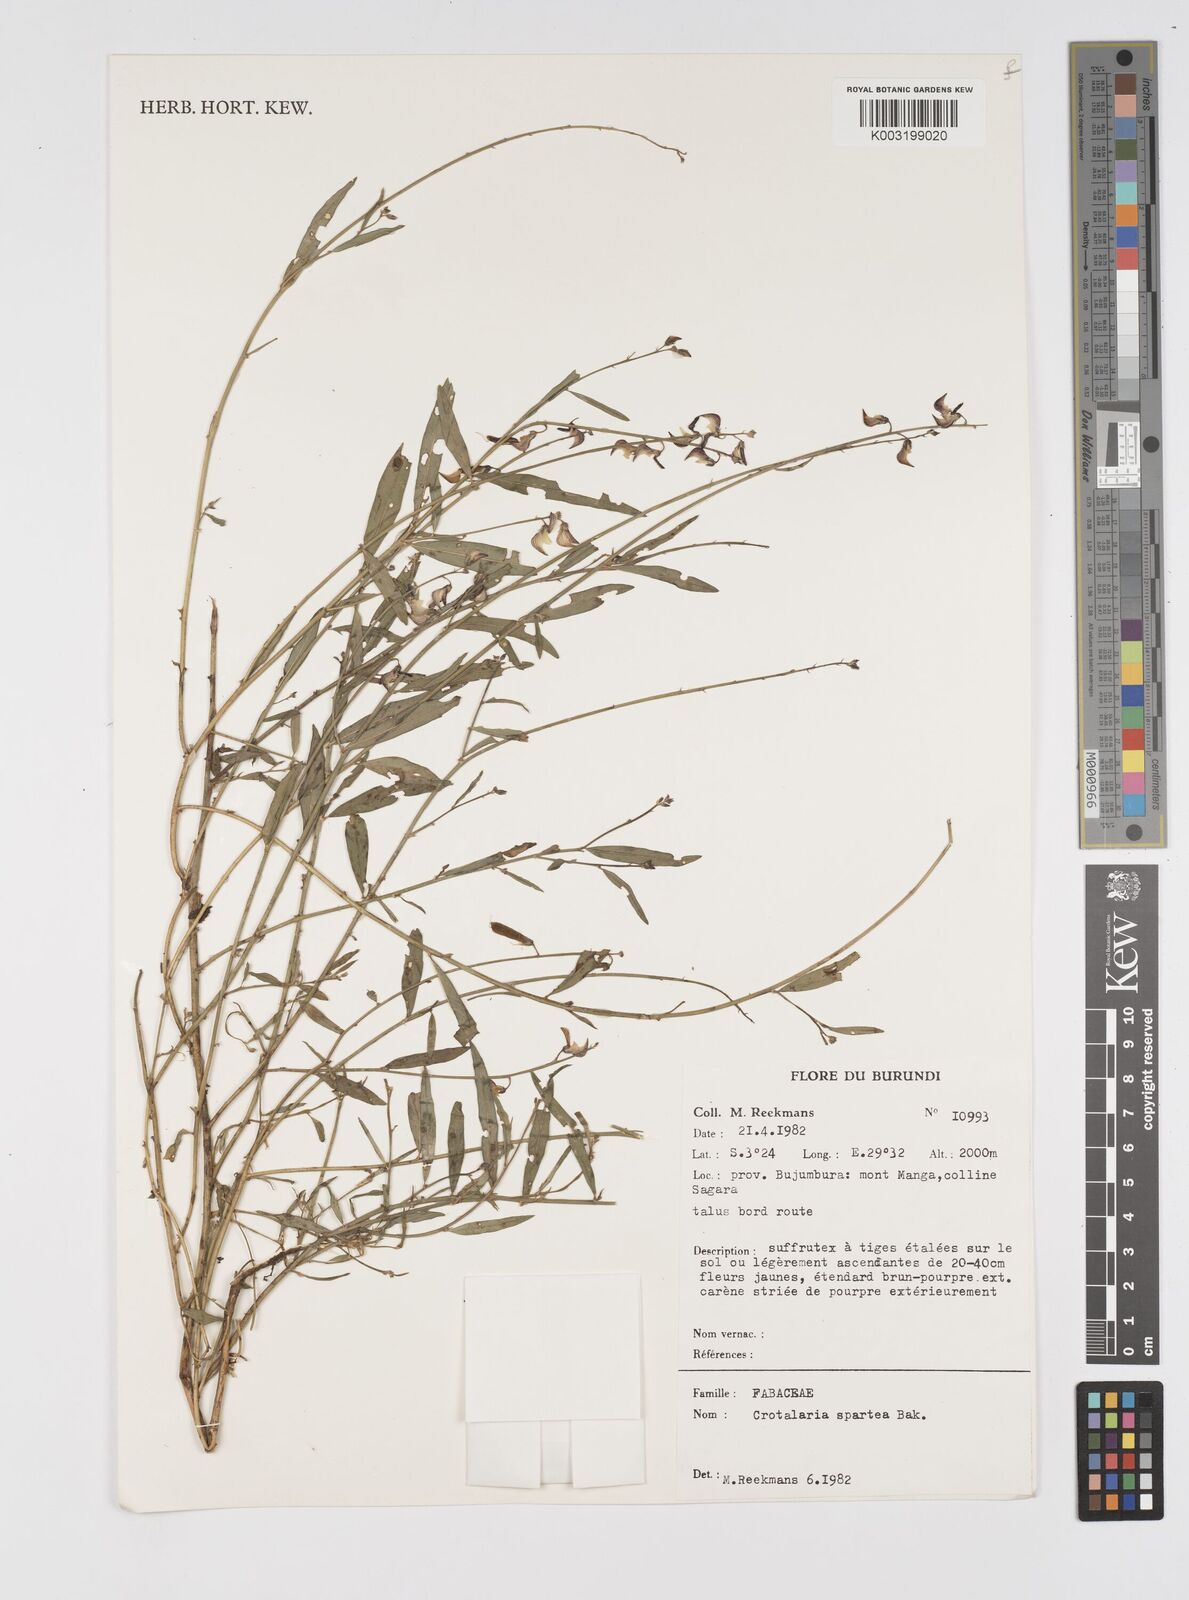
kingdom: Plantae
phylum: Tracheophyta
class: Magnoliopsida
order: Fabales
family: Fabaceae
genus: Crotalaria
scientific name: Crotalaria spartea
